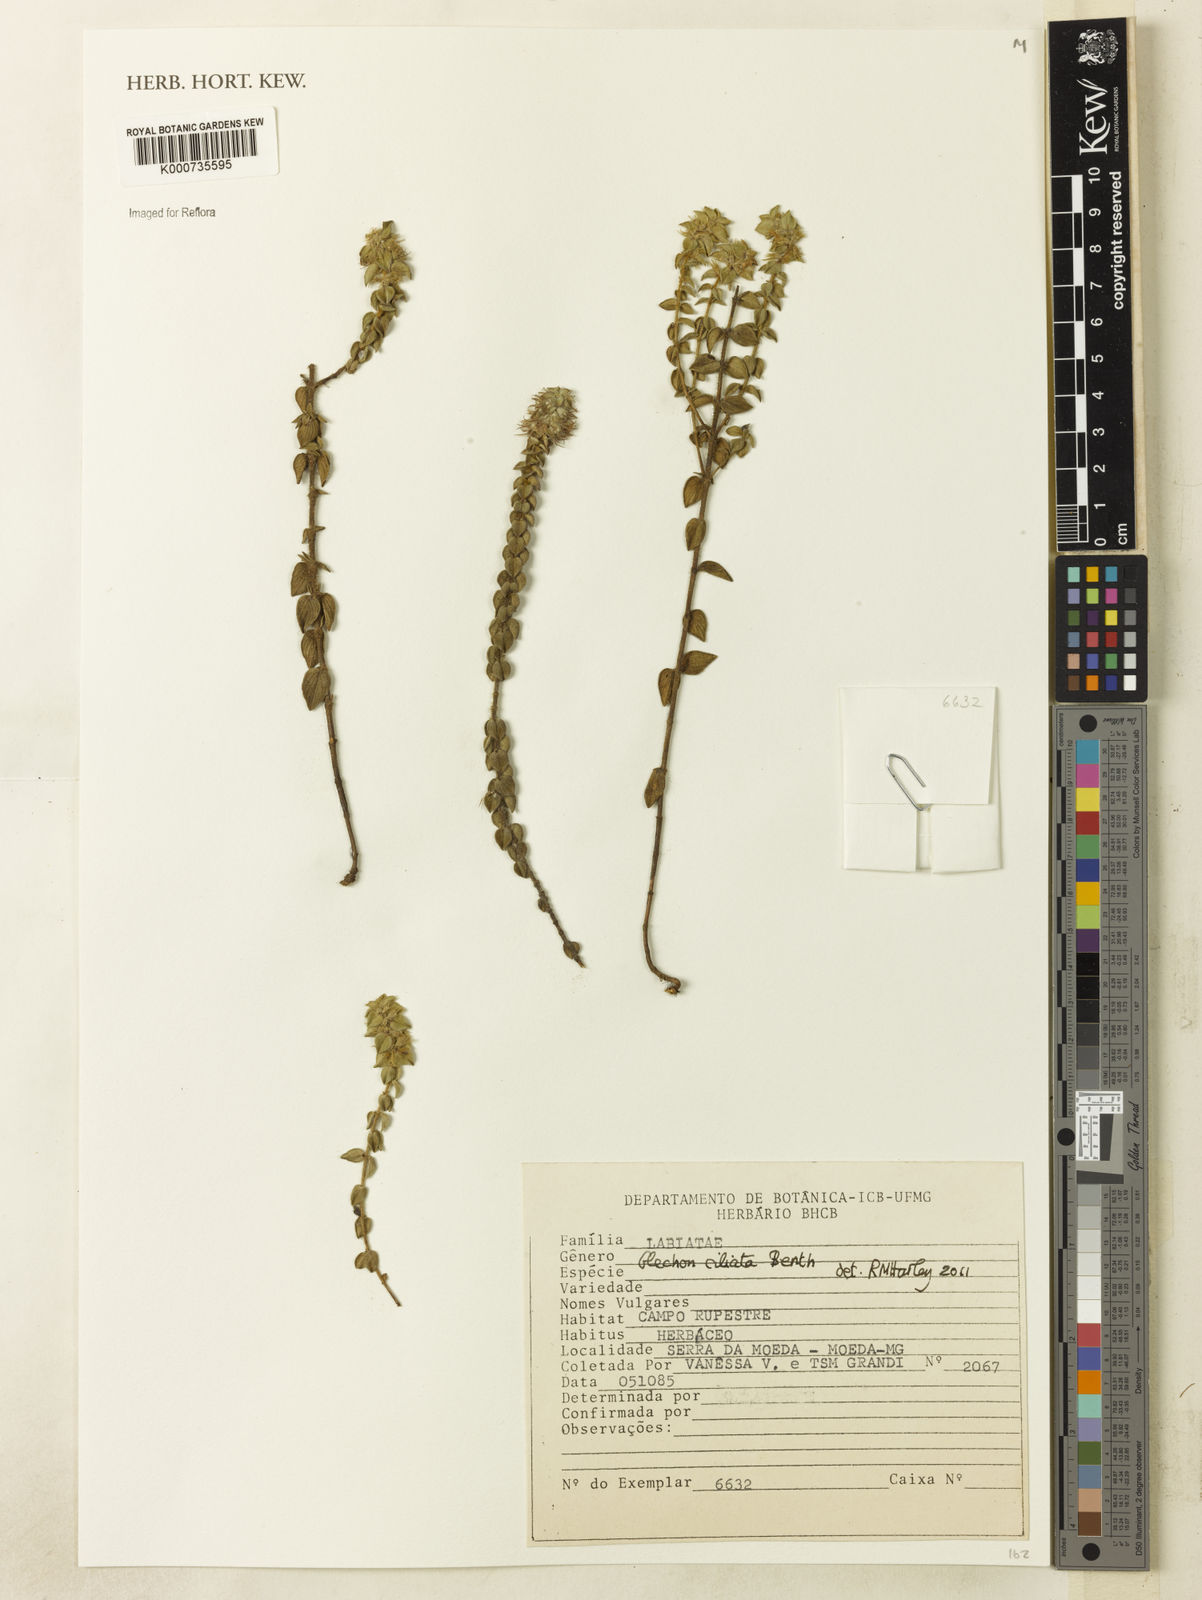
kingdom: Plantae
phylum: Tracheophyta
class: Magnoliopsida
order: Lamiales
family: Lamiaceae
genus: Glechon
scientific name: Glechon ciliata
